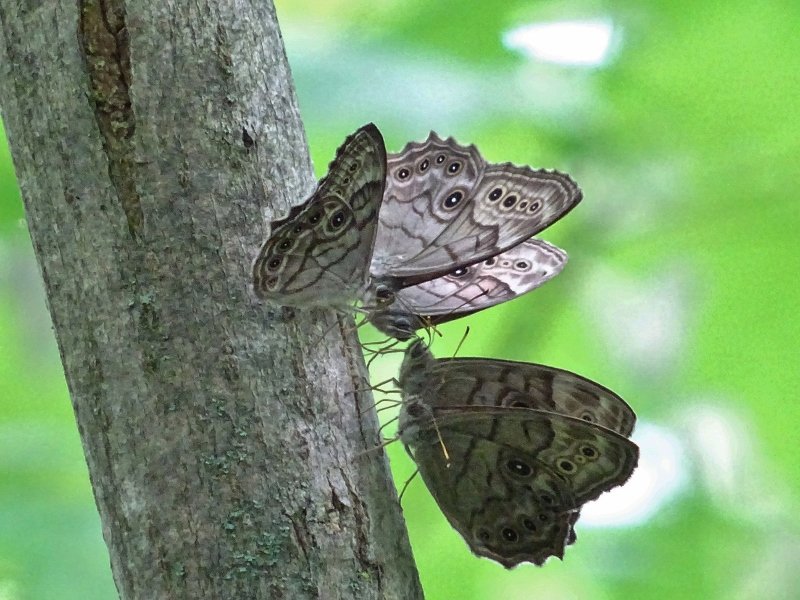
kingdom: Animalia
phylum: Arthropoda
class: Insecta
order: Lepidoptera
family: Nymphalidae
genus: Lethe
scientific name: Lethe anthedon
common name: Northern Pearly-Eye
